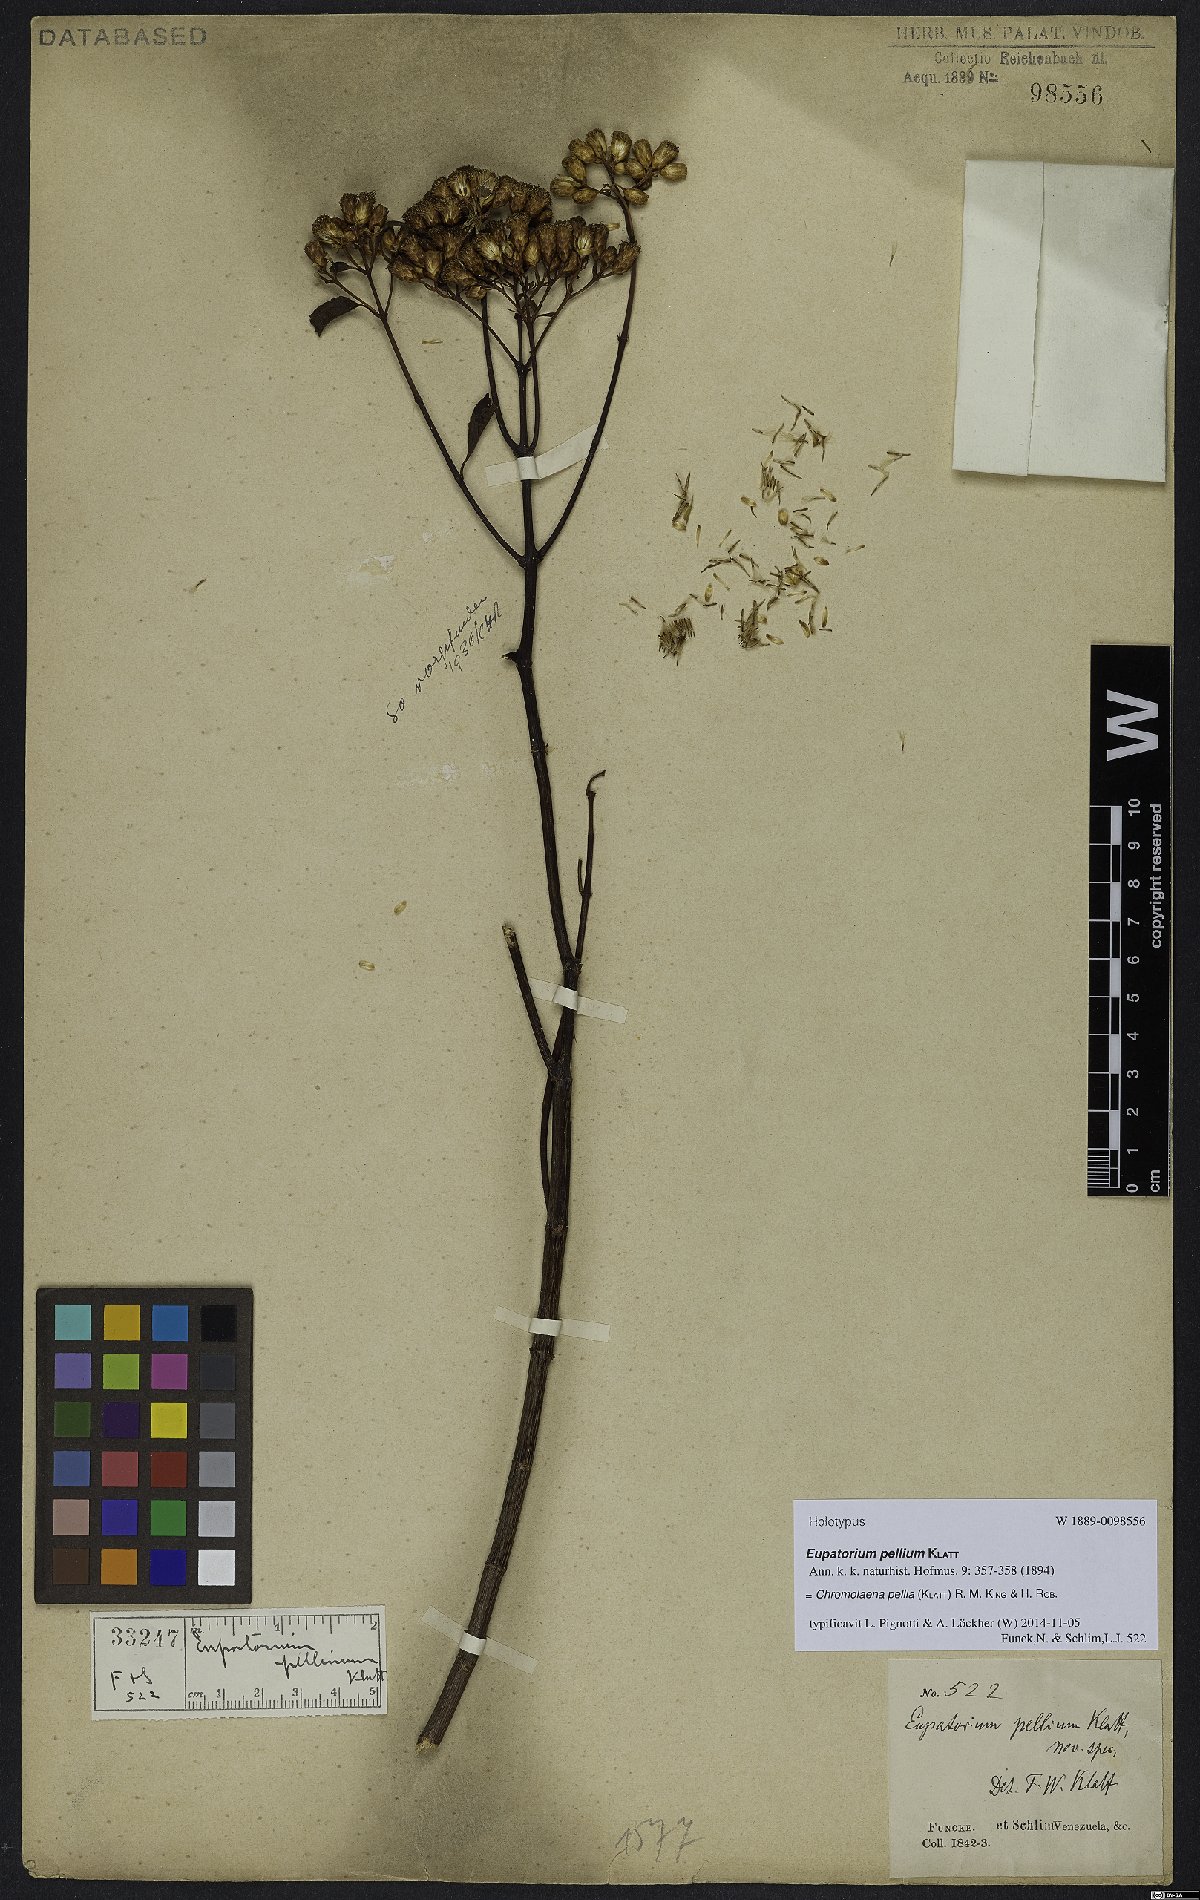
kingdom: Plantae
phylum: Tracheophyta
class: Magnoliopsida
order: Asterales
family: Asteraceae
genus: Chromolaena
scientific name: Chromolaena pellia
